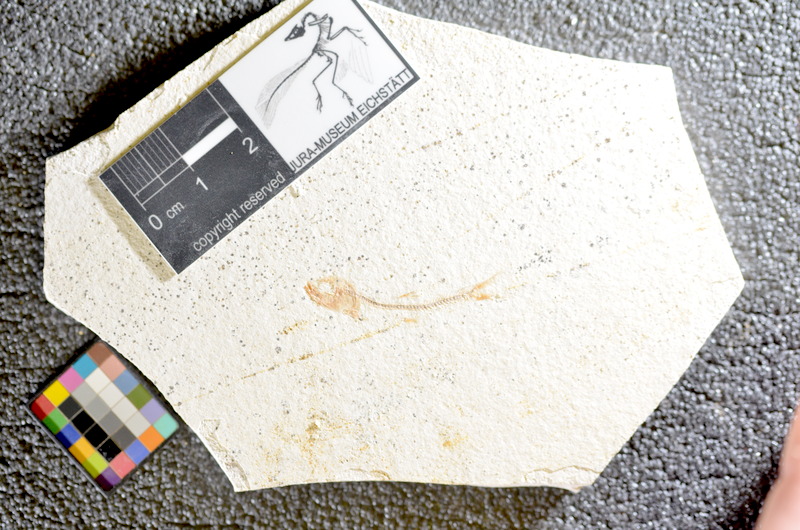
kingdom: Animalia
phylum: Chordata
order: Salmoniformes
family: Orthogonikleithridae
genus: Orthogonikleithrus
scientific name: Orthogonikleithrus hoelli
